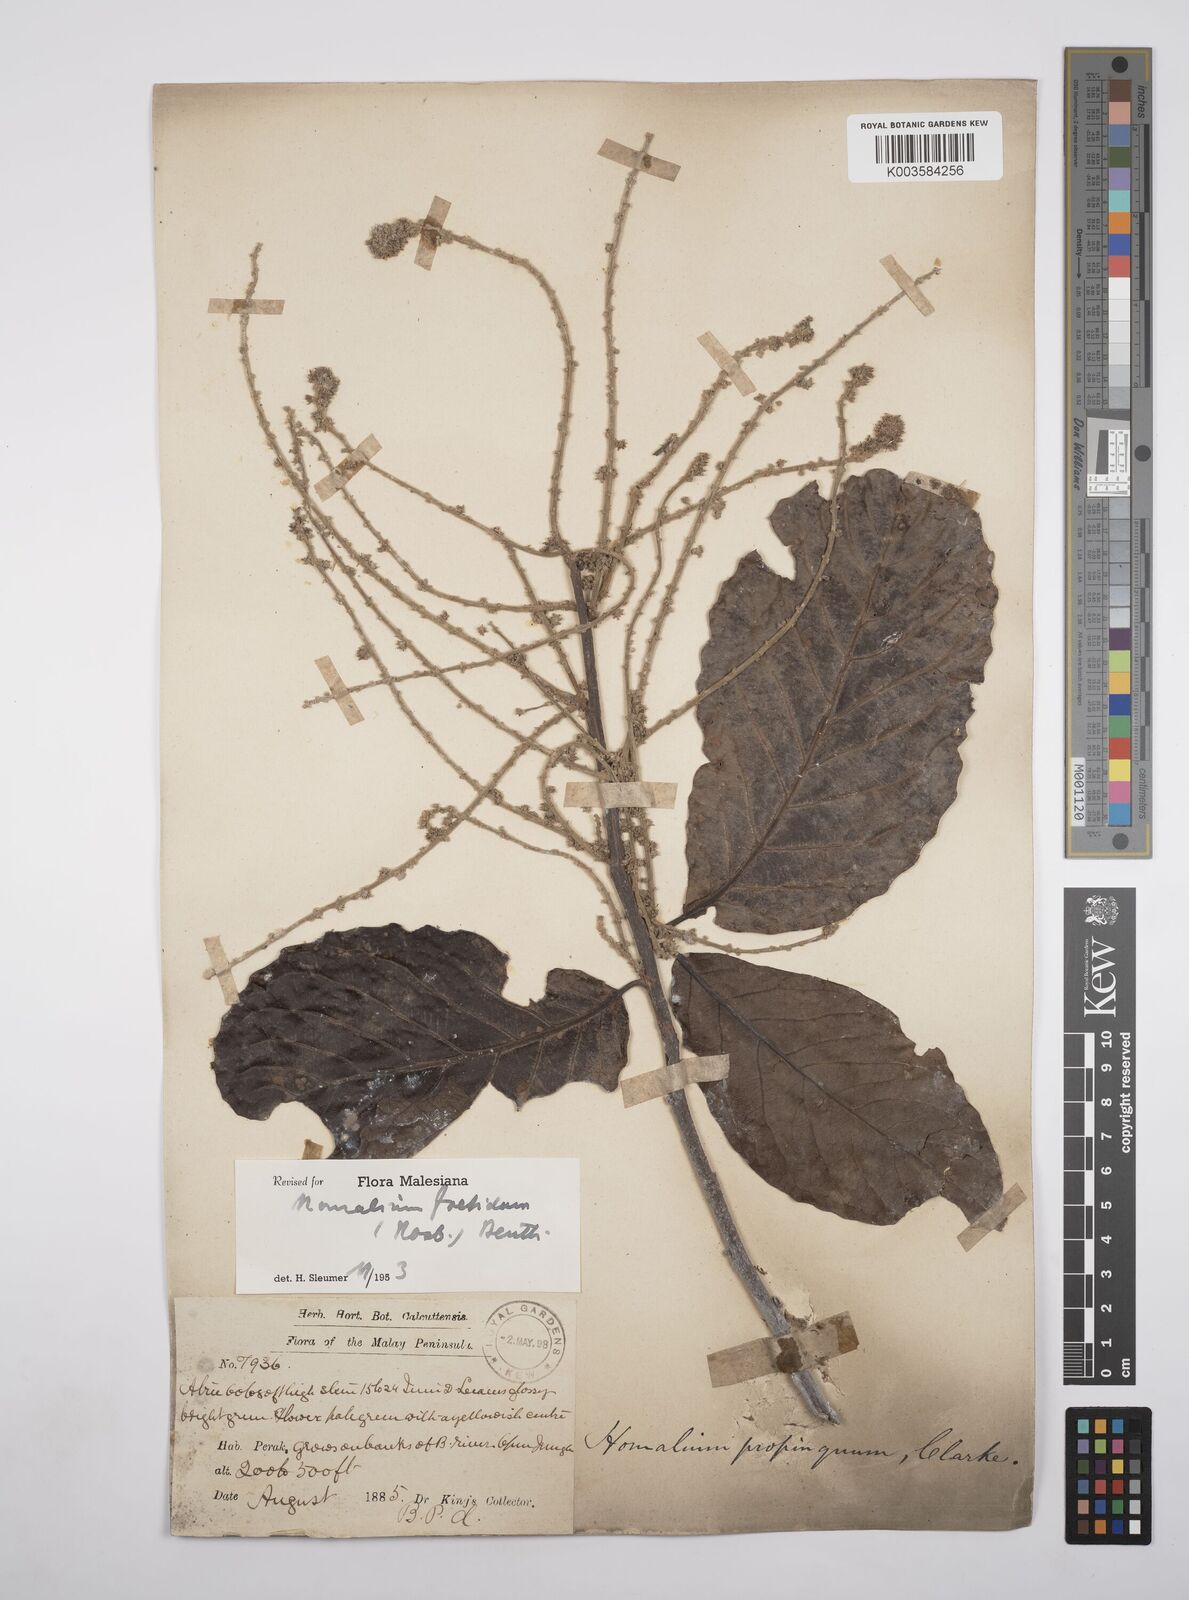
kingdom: Plantae
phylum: Tracheophyta
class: Magnoliopsida
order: Malpighiales
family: Salicaceae
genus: Homalium
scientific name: Homalium foetidum
